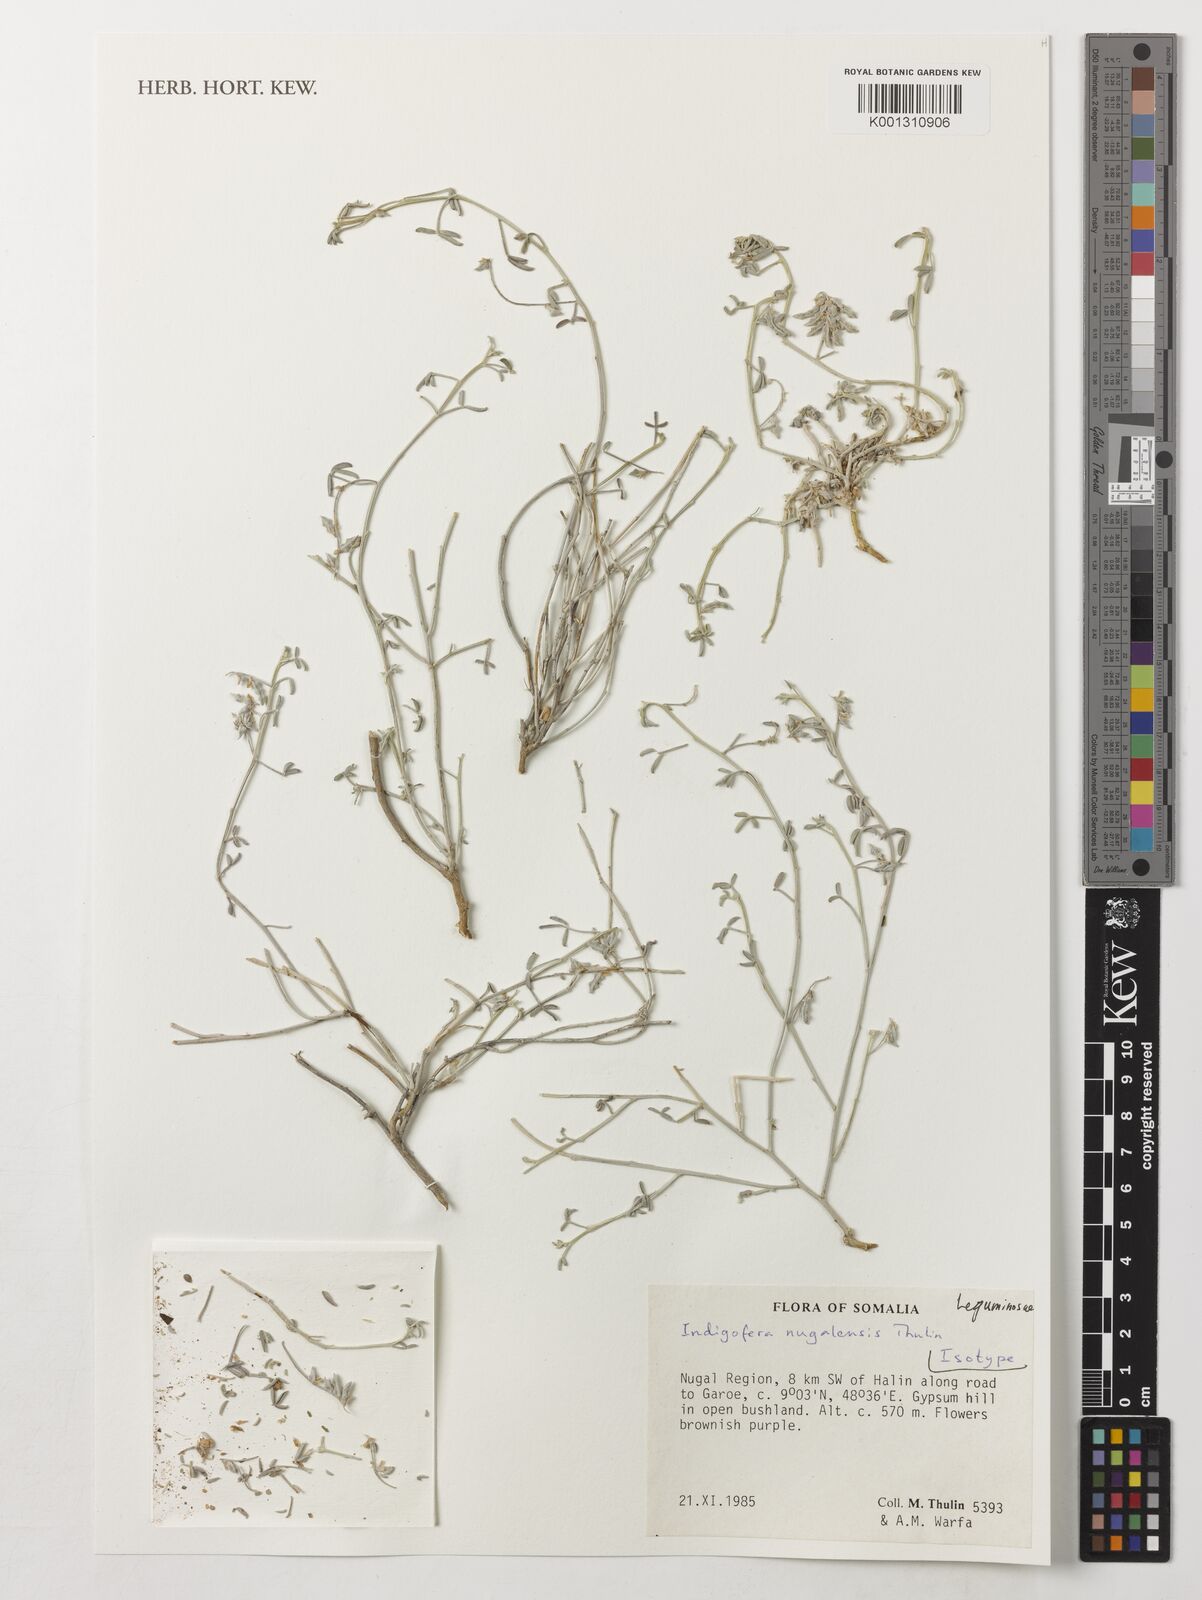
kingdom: Plantae
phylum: Tracheophyta
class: Magnoliopsida
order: Fabales
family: Fabaceae
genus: Indigofera
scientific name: Indigofera nugalensis
